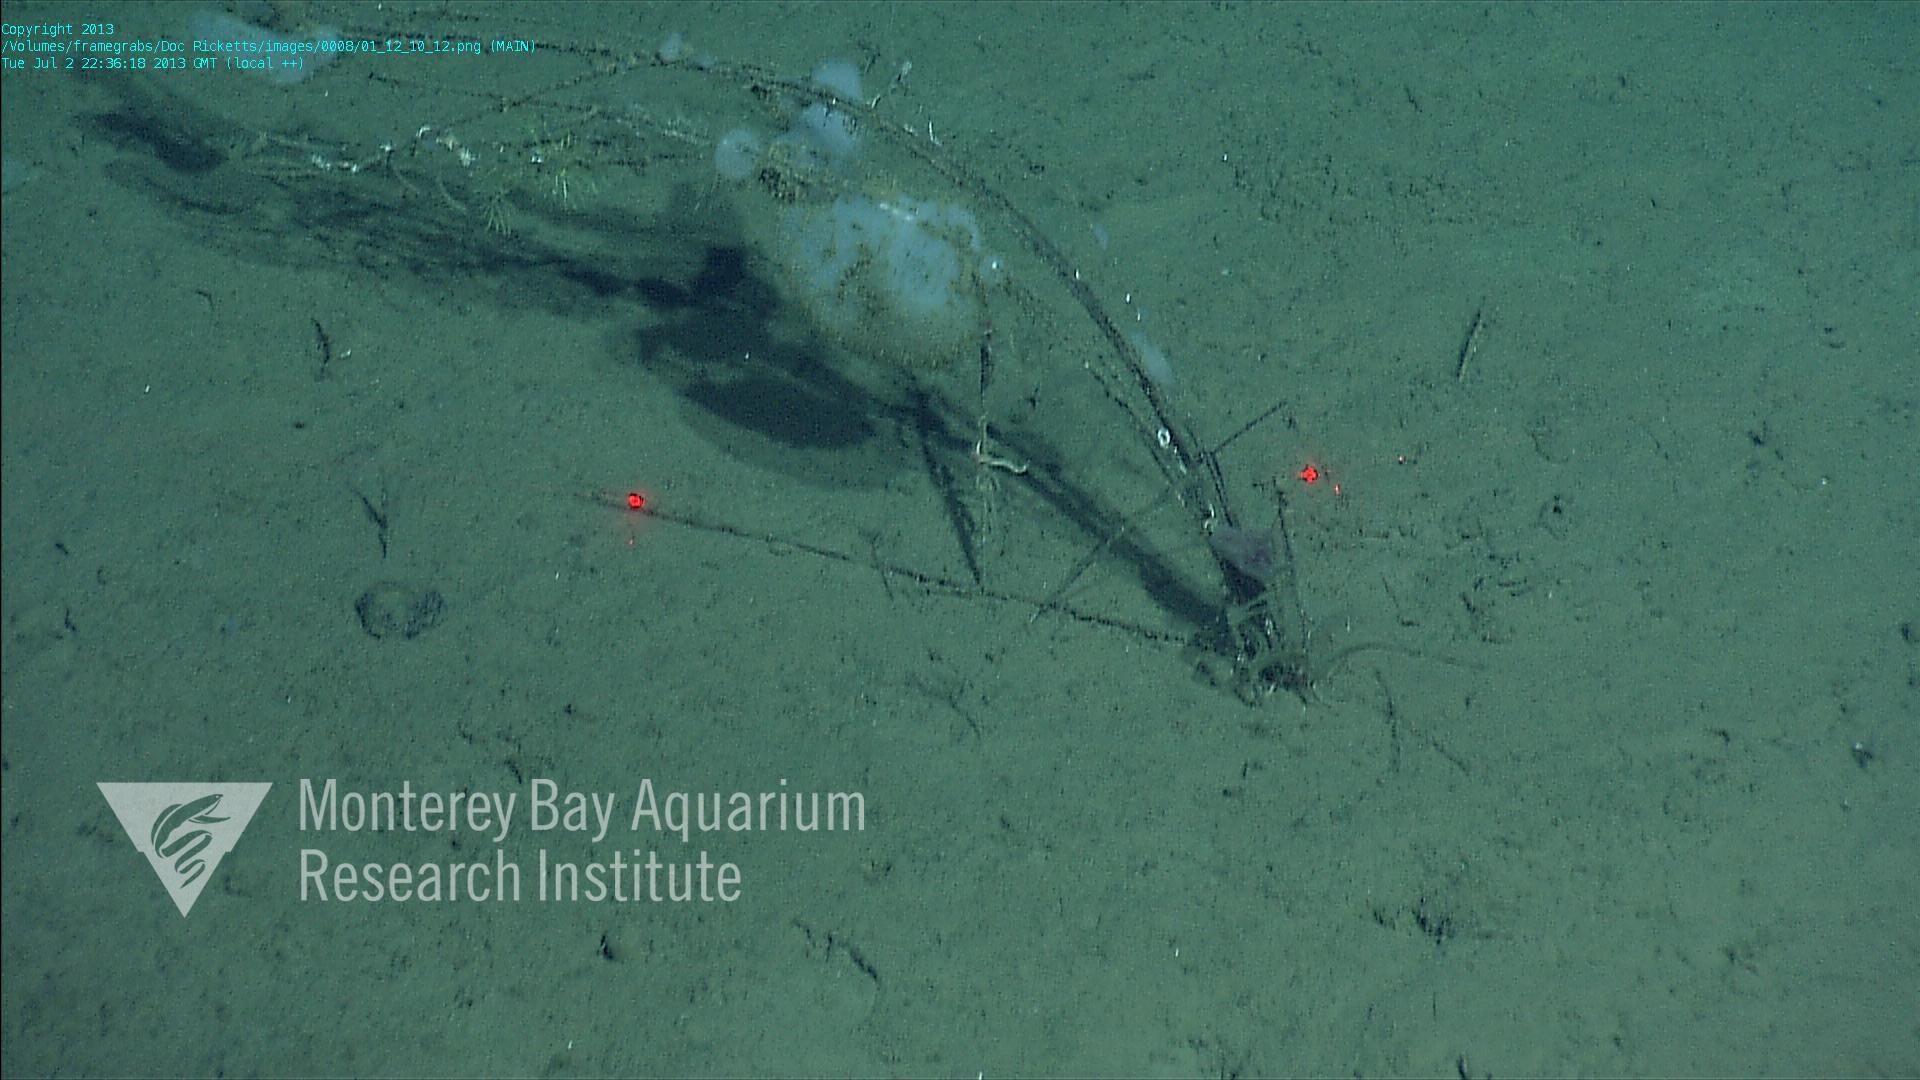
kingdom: Animalia
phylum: Porifera
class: Hexactinellida
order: Lyssacinosida
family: Rossellidae
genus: Bathydorus
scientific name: Bathydorus spinosus
